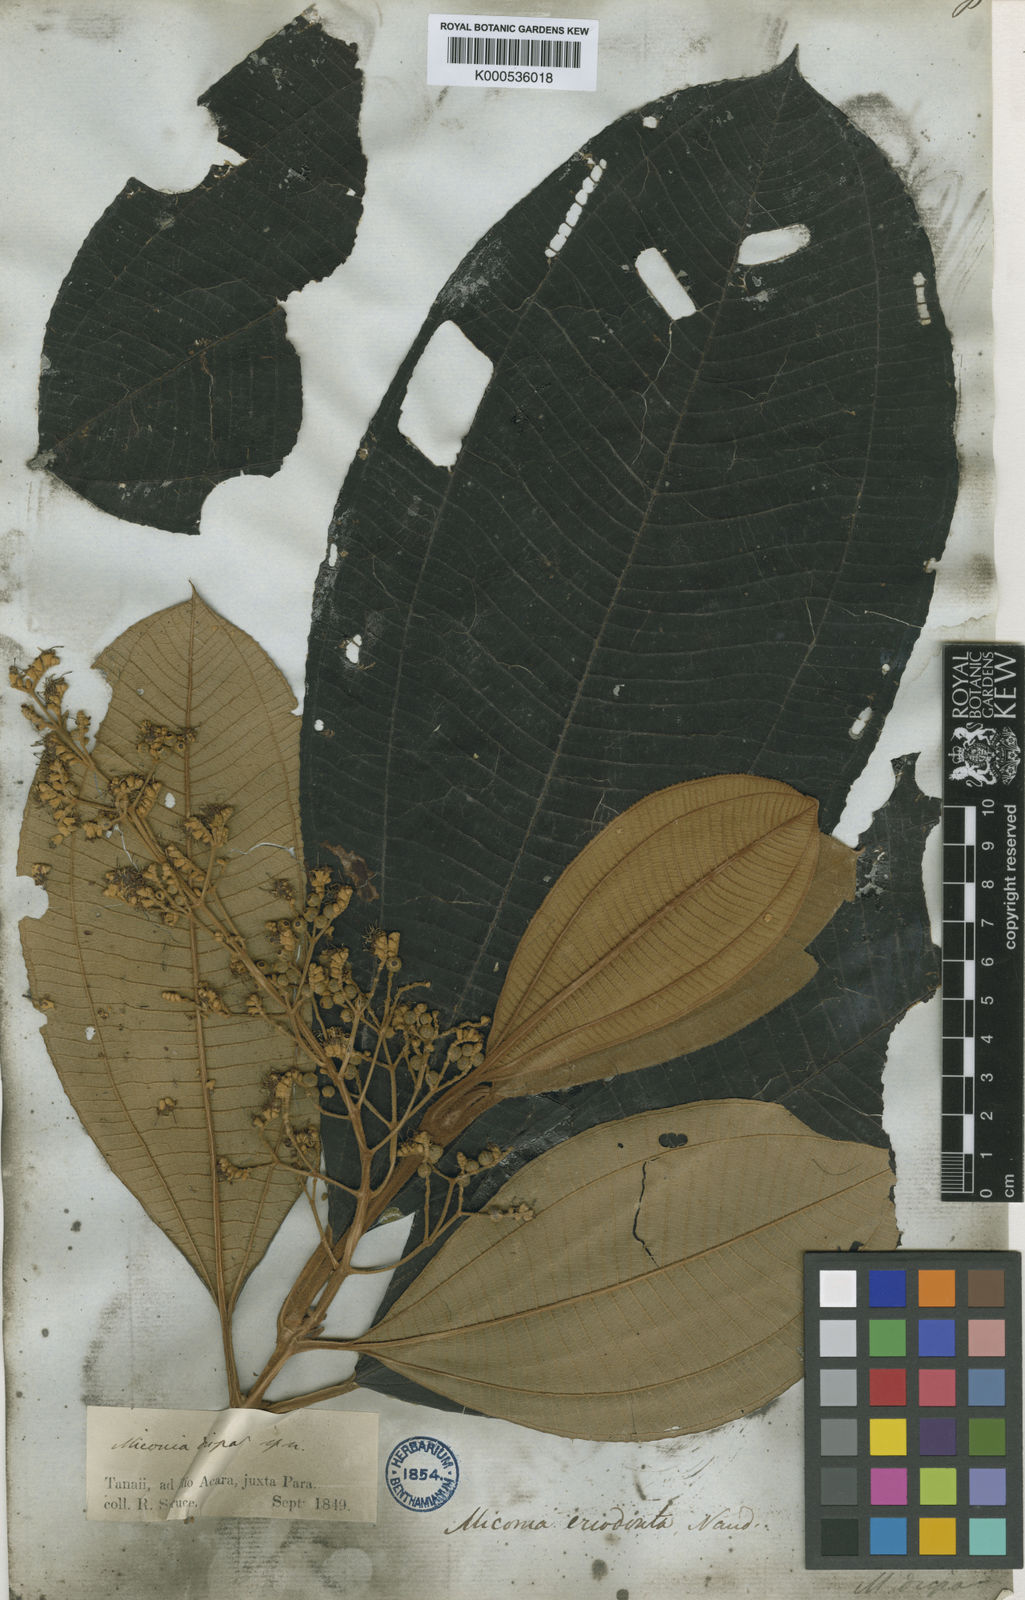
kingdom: Plantae
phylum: Tracheophyta
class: Magnoliopsida
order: Myrtales
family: Melastomataceae
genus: Miconia
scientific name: Miconia dispar
